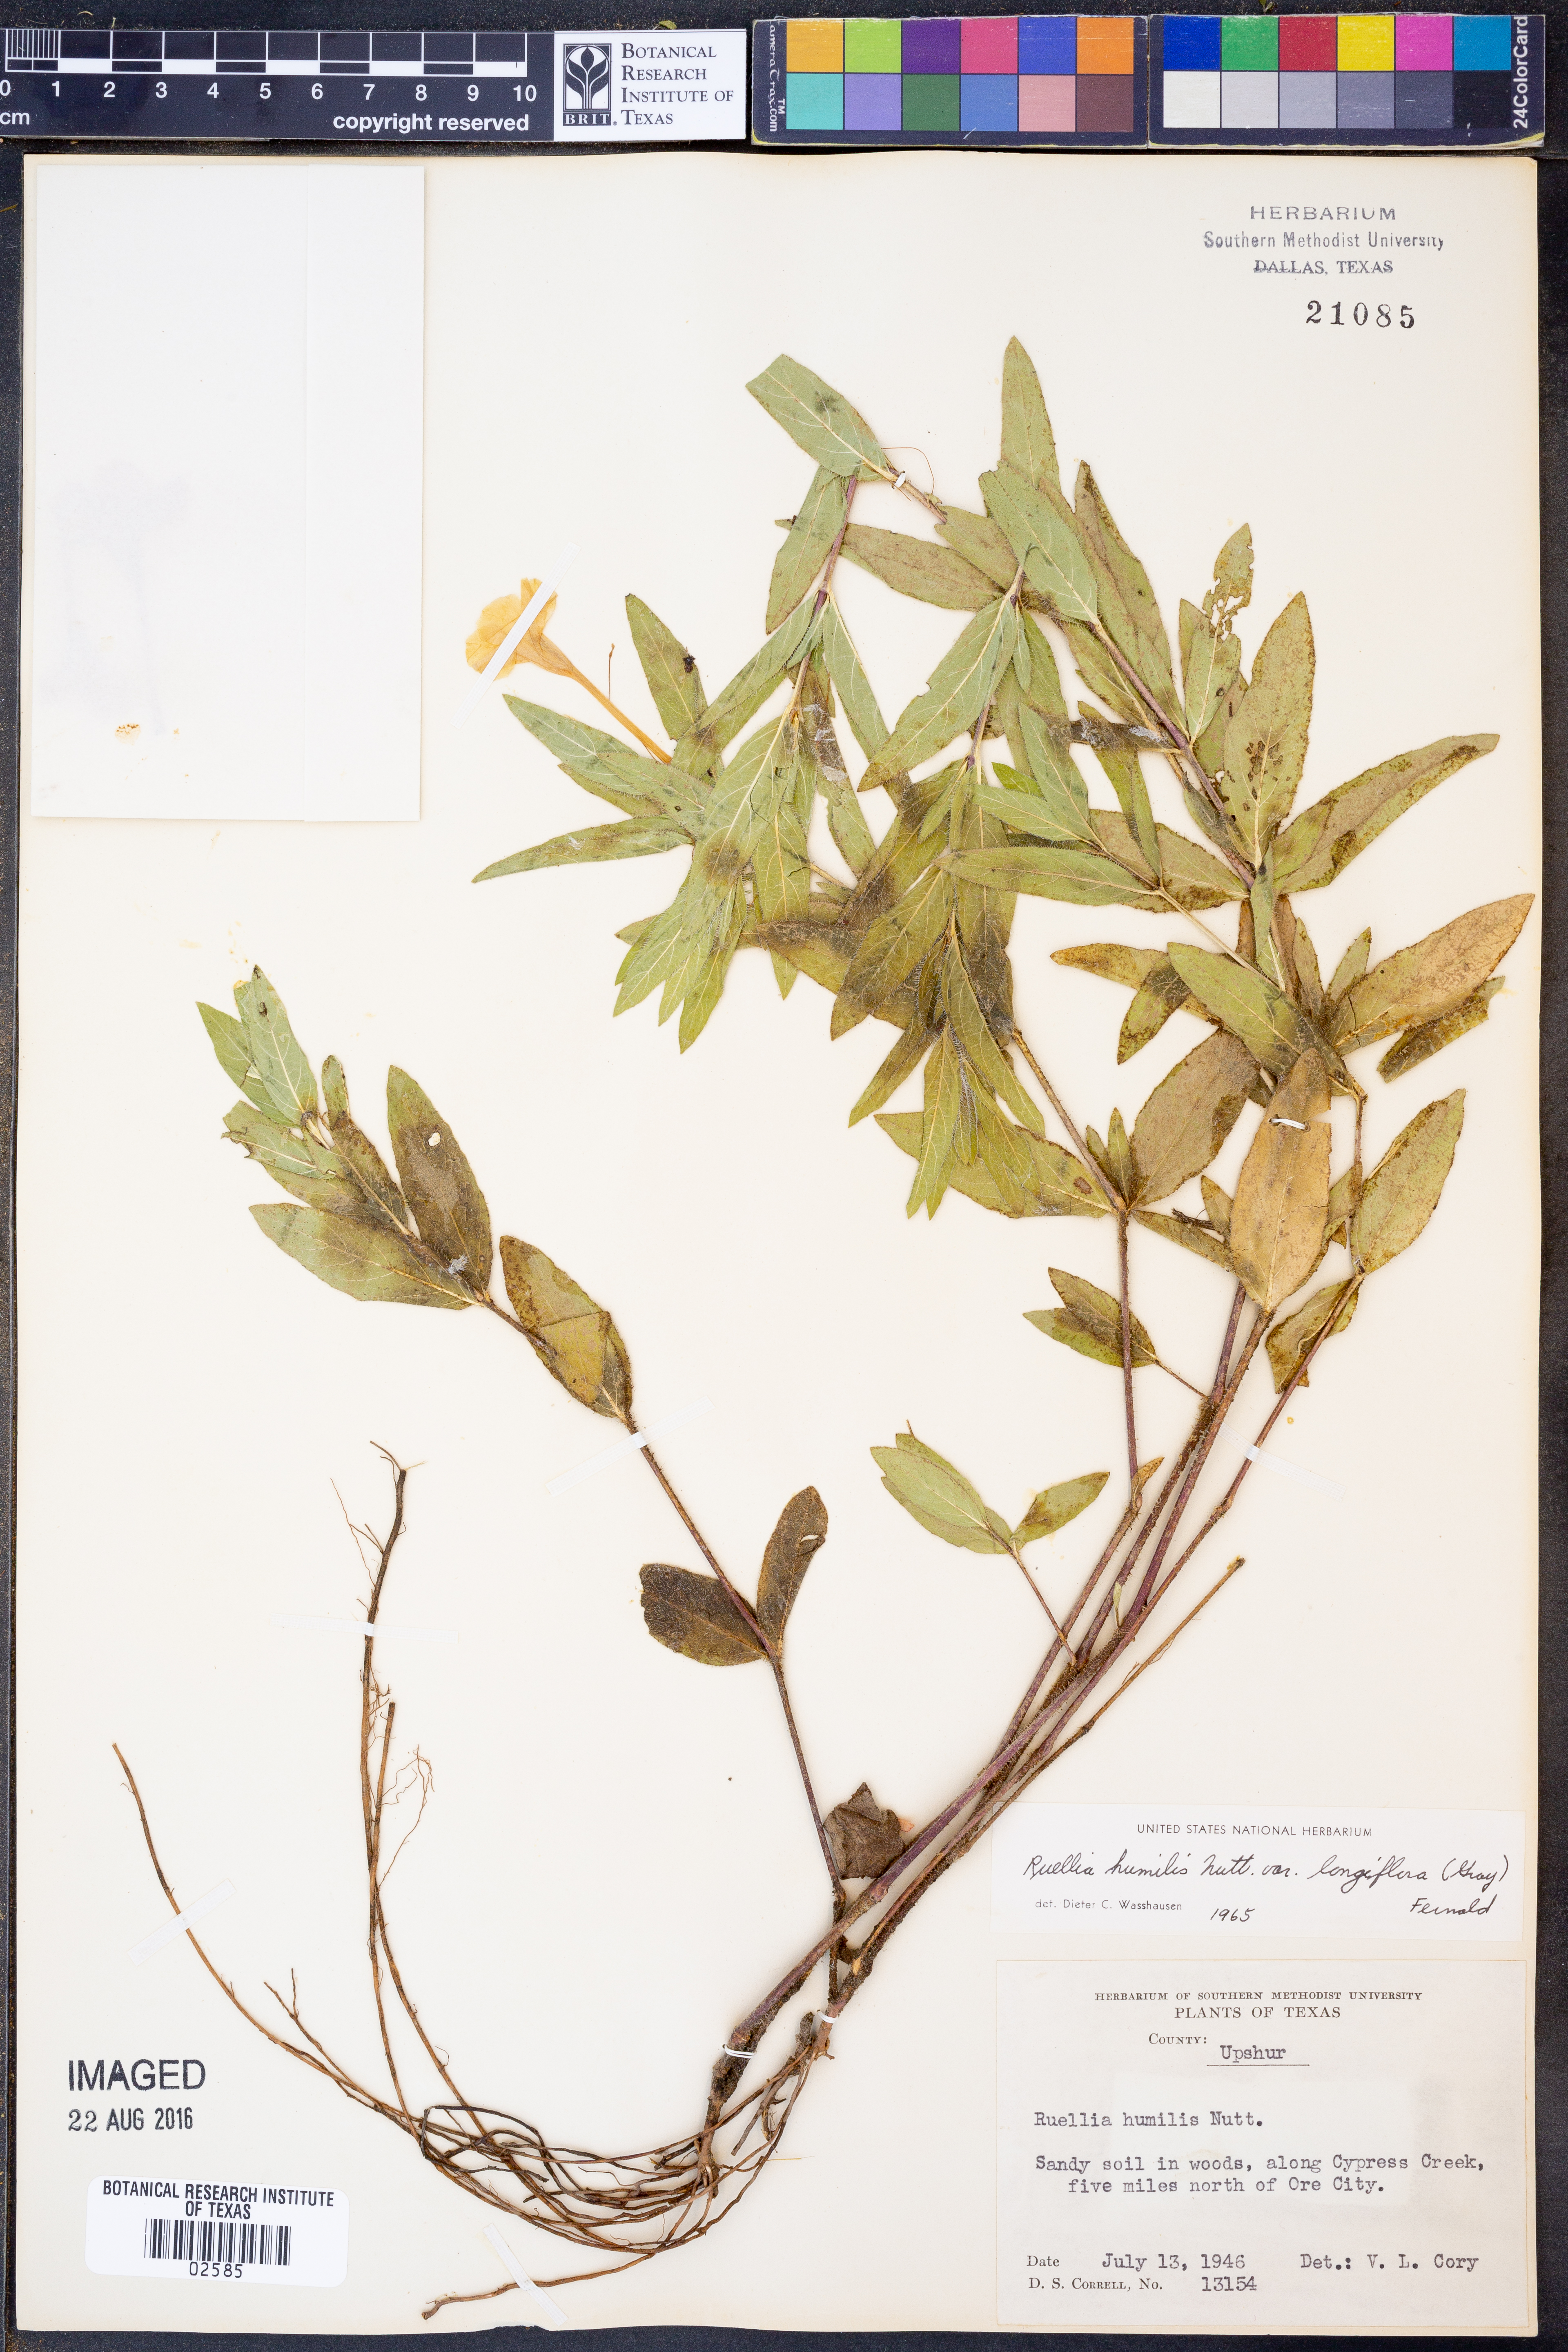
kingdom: Plantae
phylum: Tracheophyta
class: Magnoliopsida
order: Lamiales
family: Acanthaceae
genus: Ruellia
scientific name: Ruellia humilis
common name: Fringe-leaf ruellia
